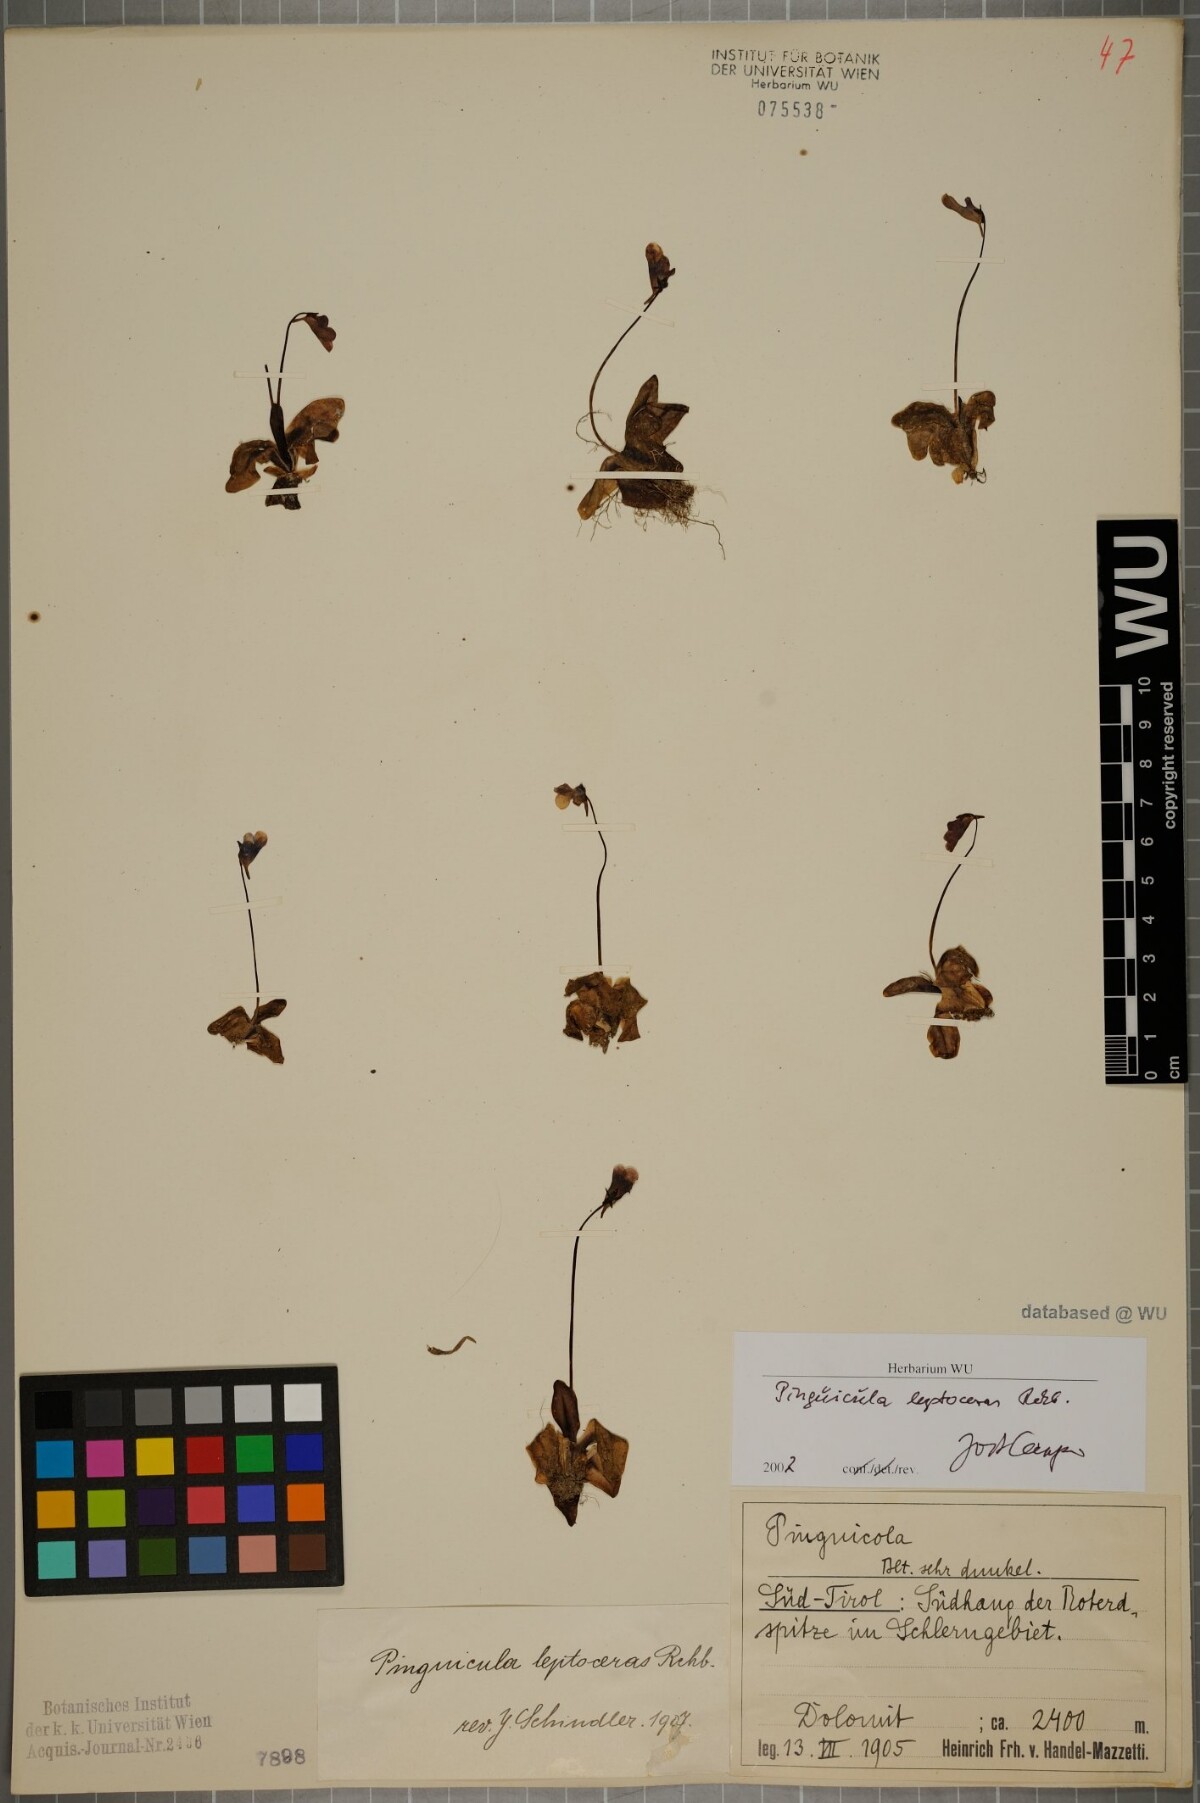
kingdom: Plantae
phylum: Tracheophyta
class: Magnoliopsida
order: Lamiales
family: Lentibulariaceae
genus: Pinguicula
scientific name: Pinguicula leptoceras
